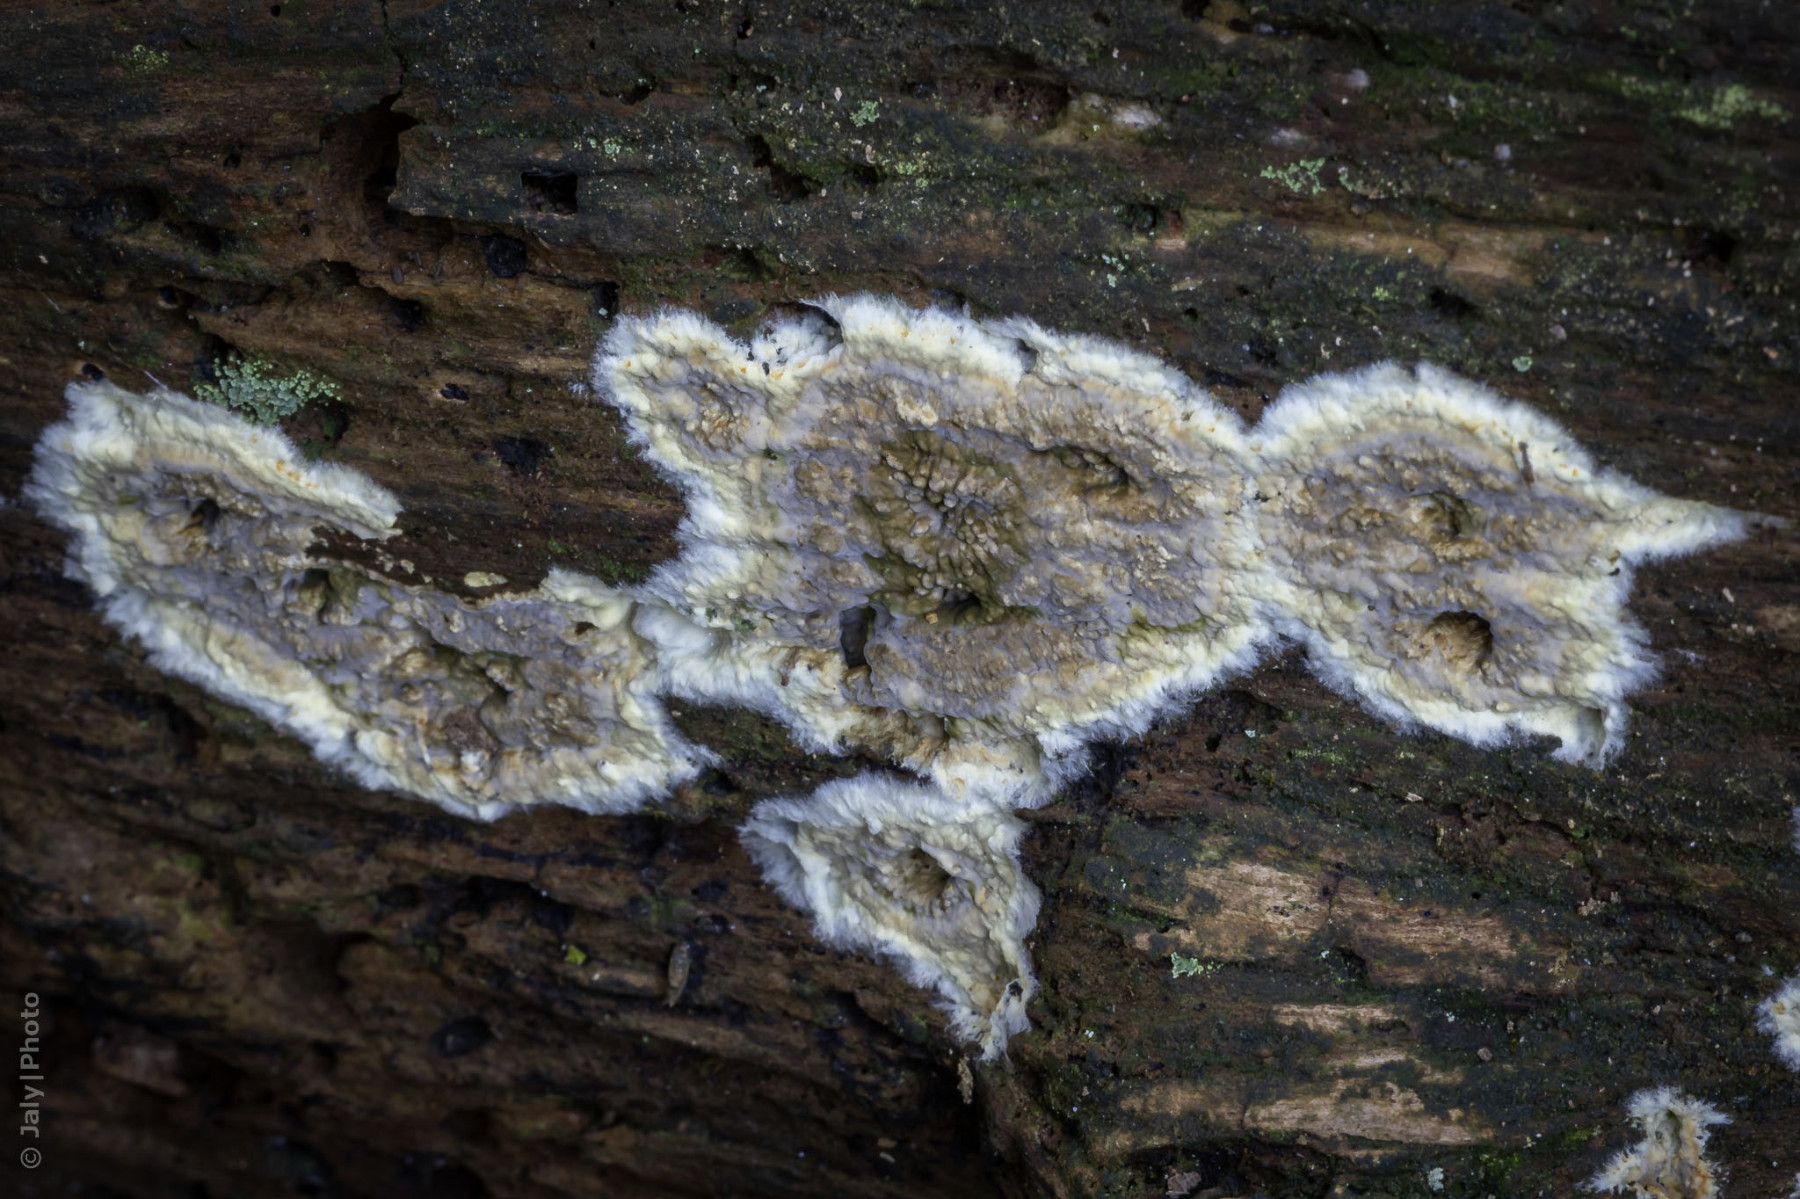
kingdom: Fungi
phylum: Basidiomycota
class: Agaricomycetes
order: Boletales
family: Coniophoraceae
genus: Coniophora
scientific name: Coniophora puteana
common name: gul tømmersvamp
